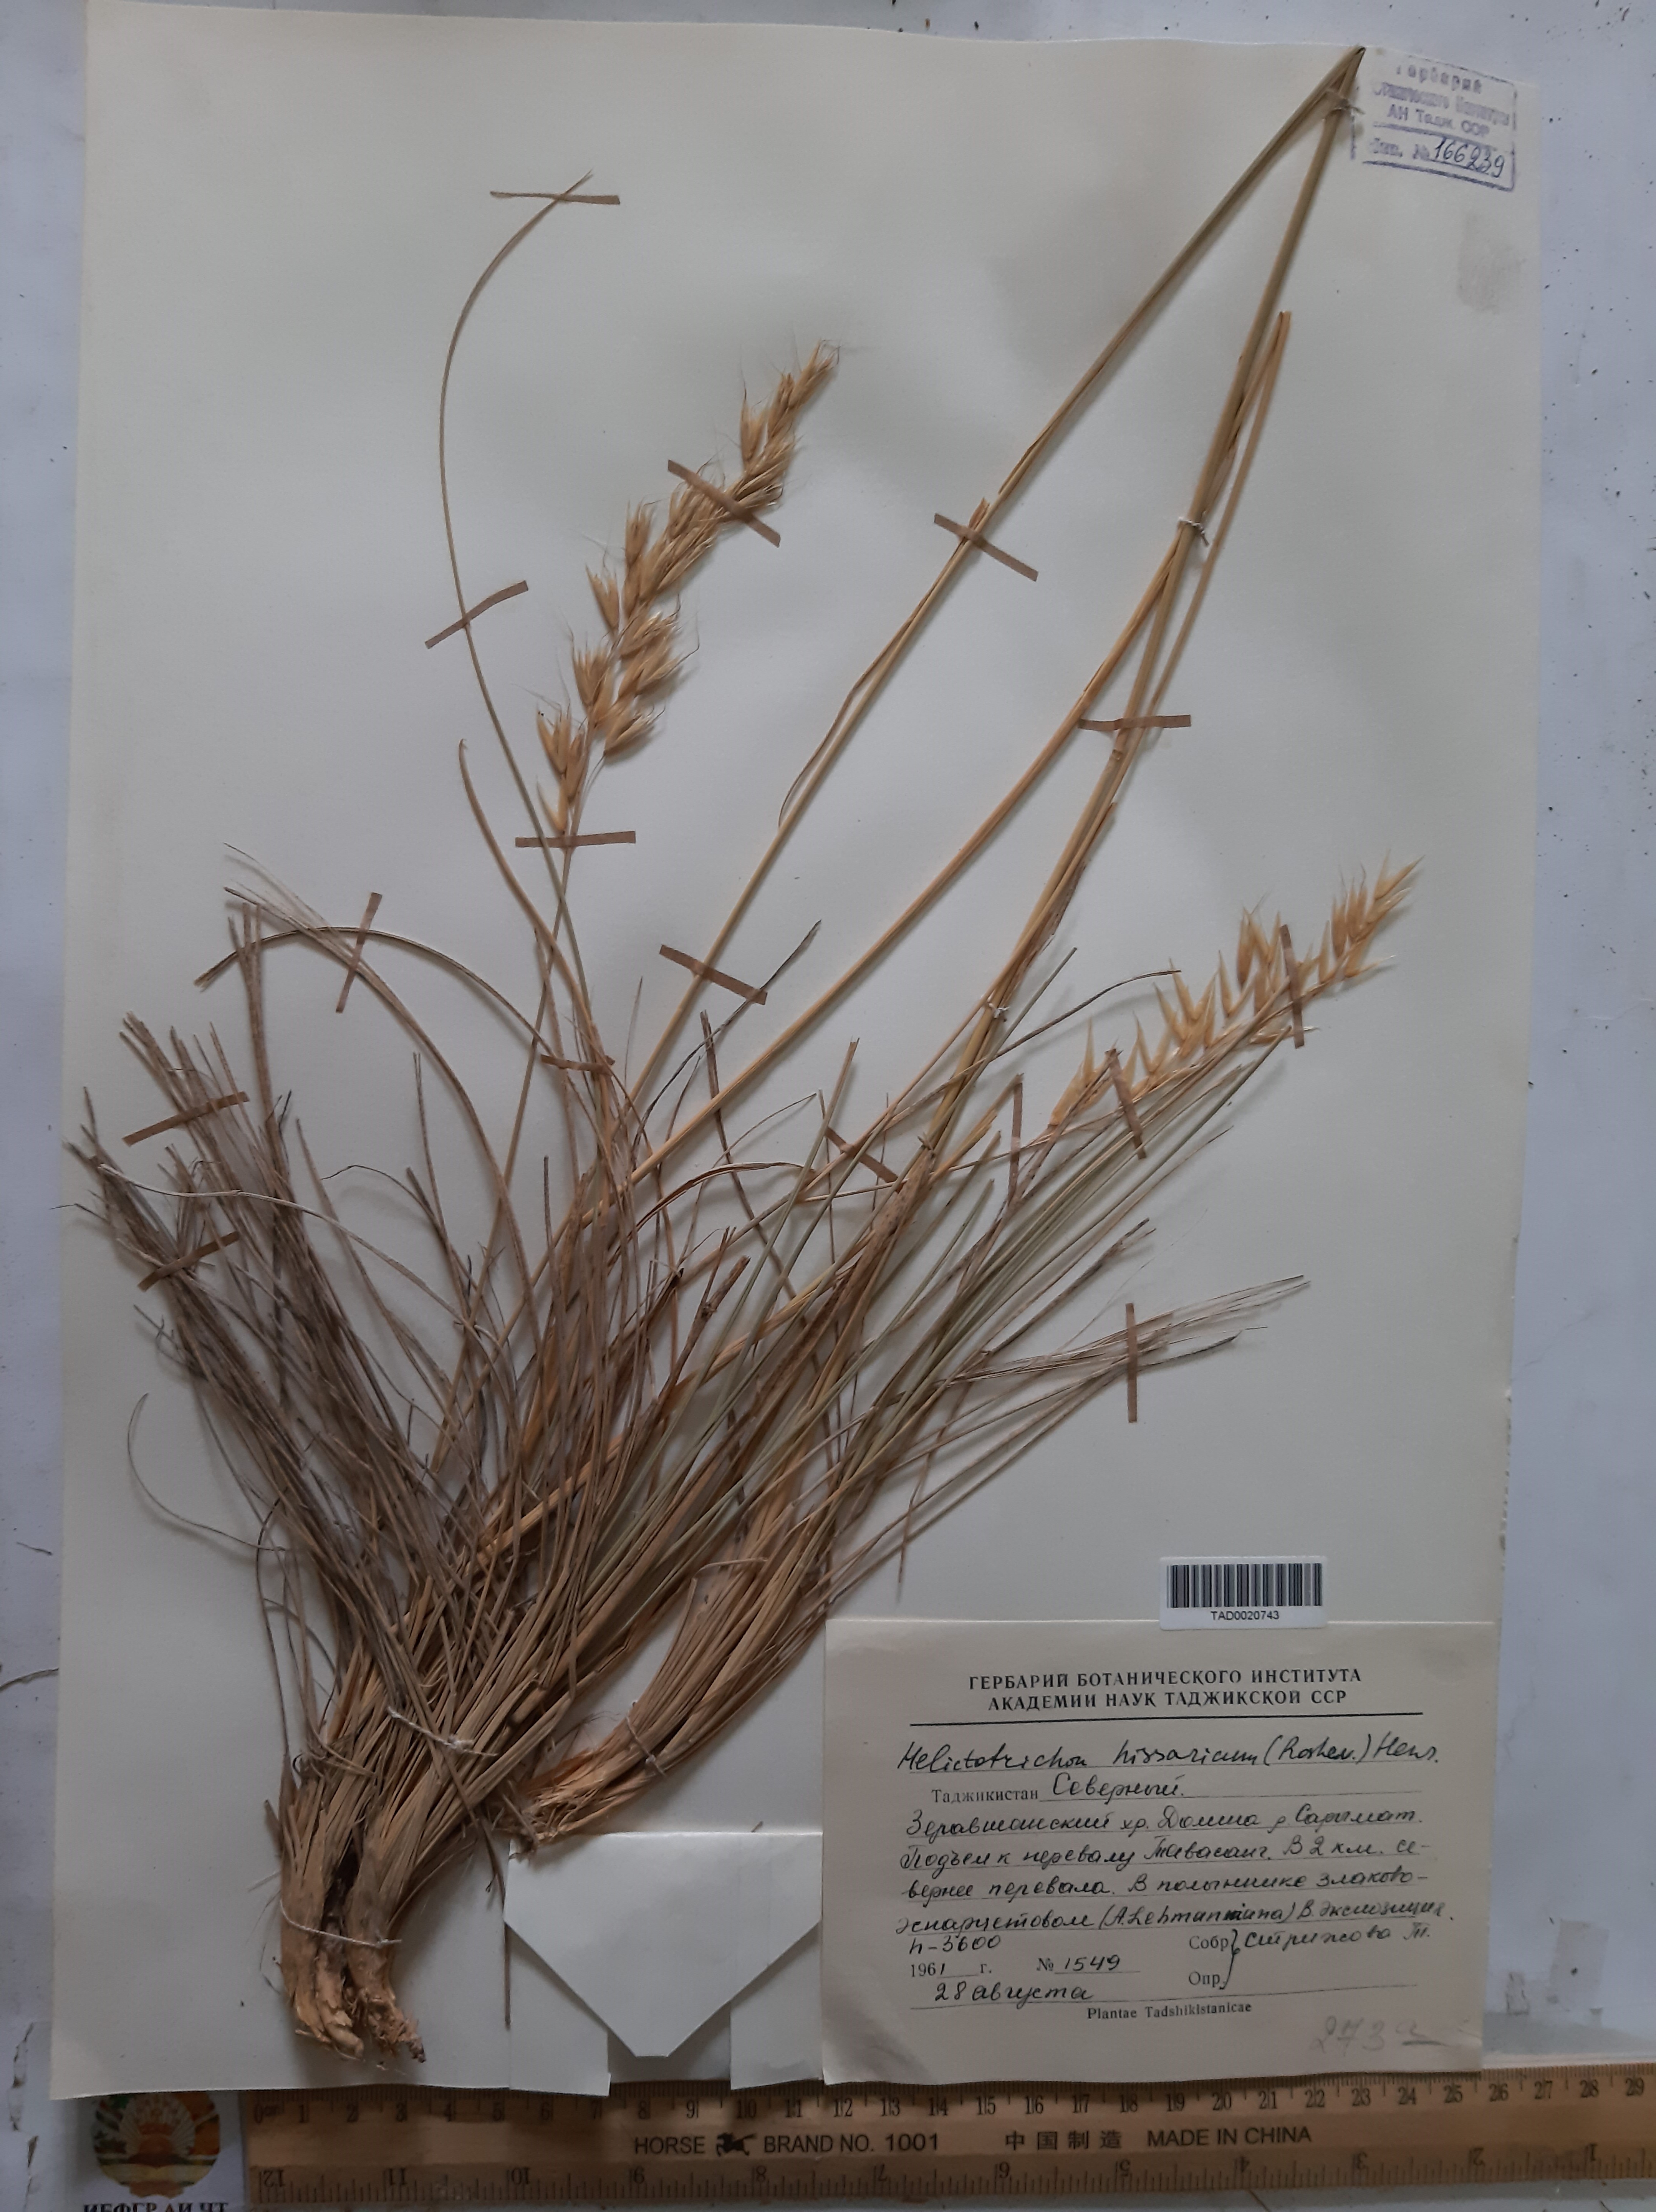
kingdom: Plantae
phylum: Tracheophyta
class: Liliopsida
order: Poales
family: Poaceae
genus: Helictotrichon
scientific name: Helictotrichon hissaricum
